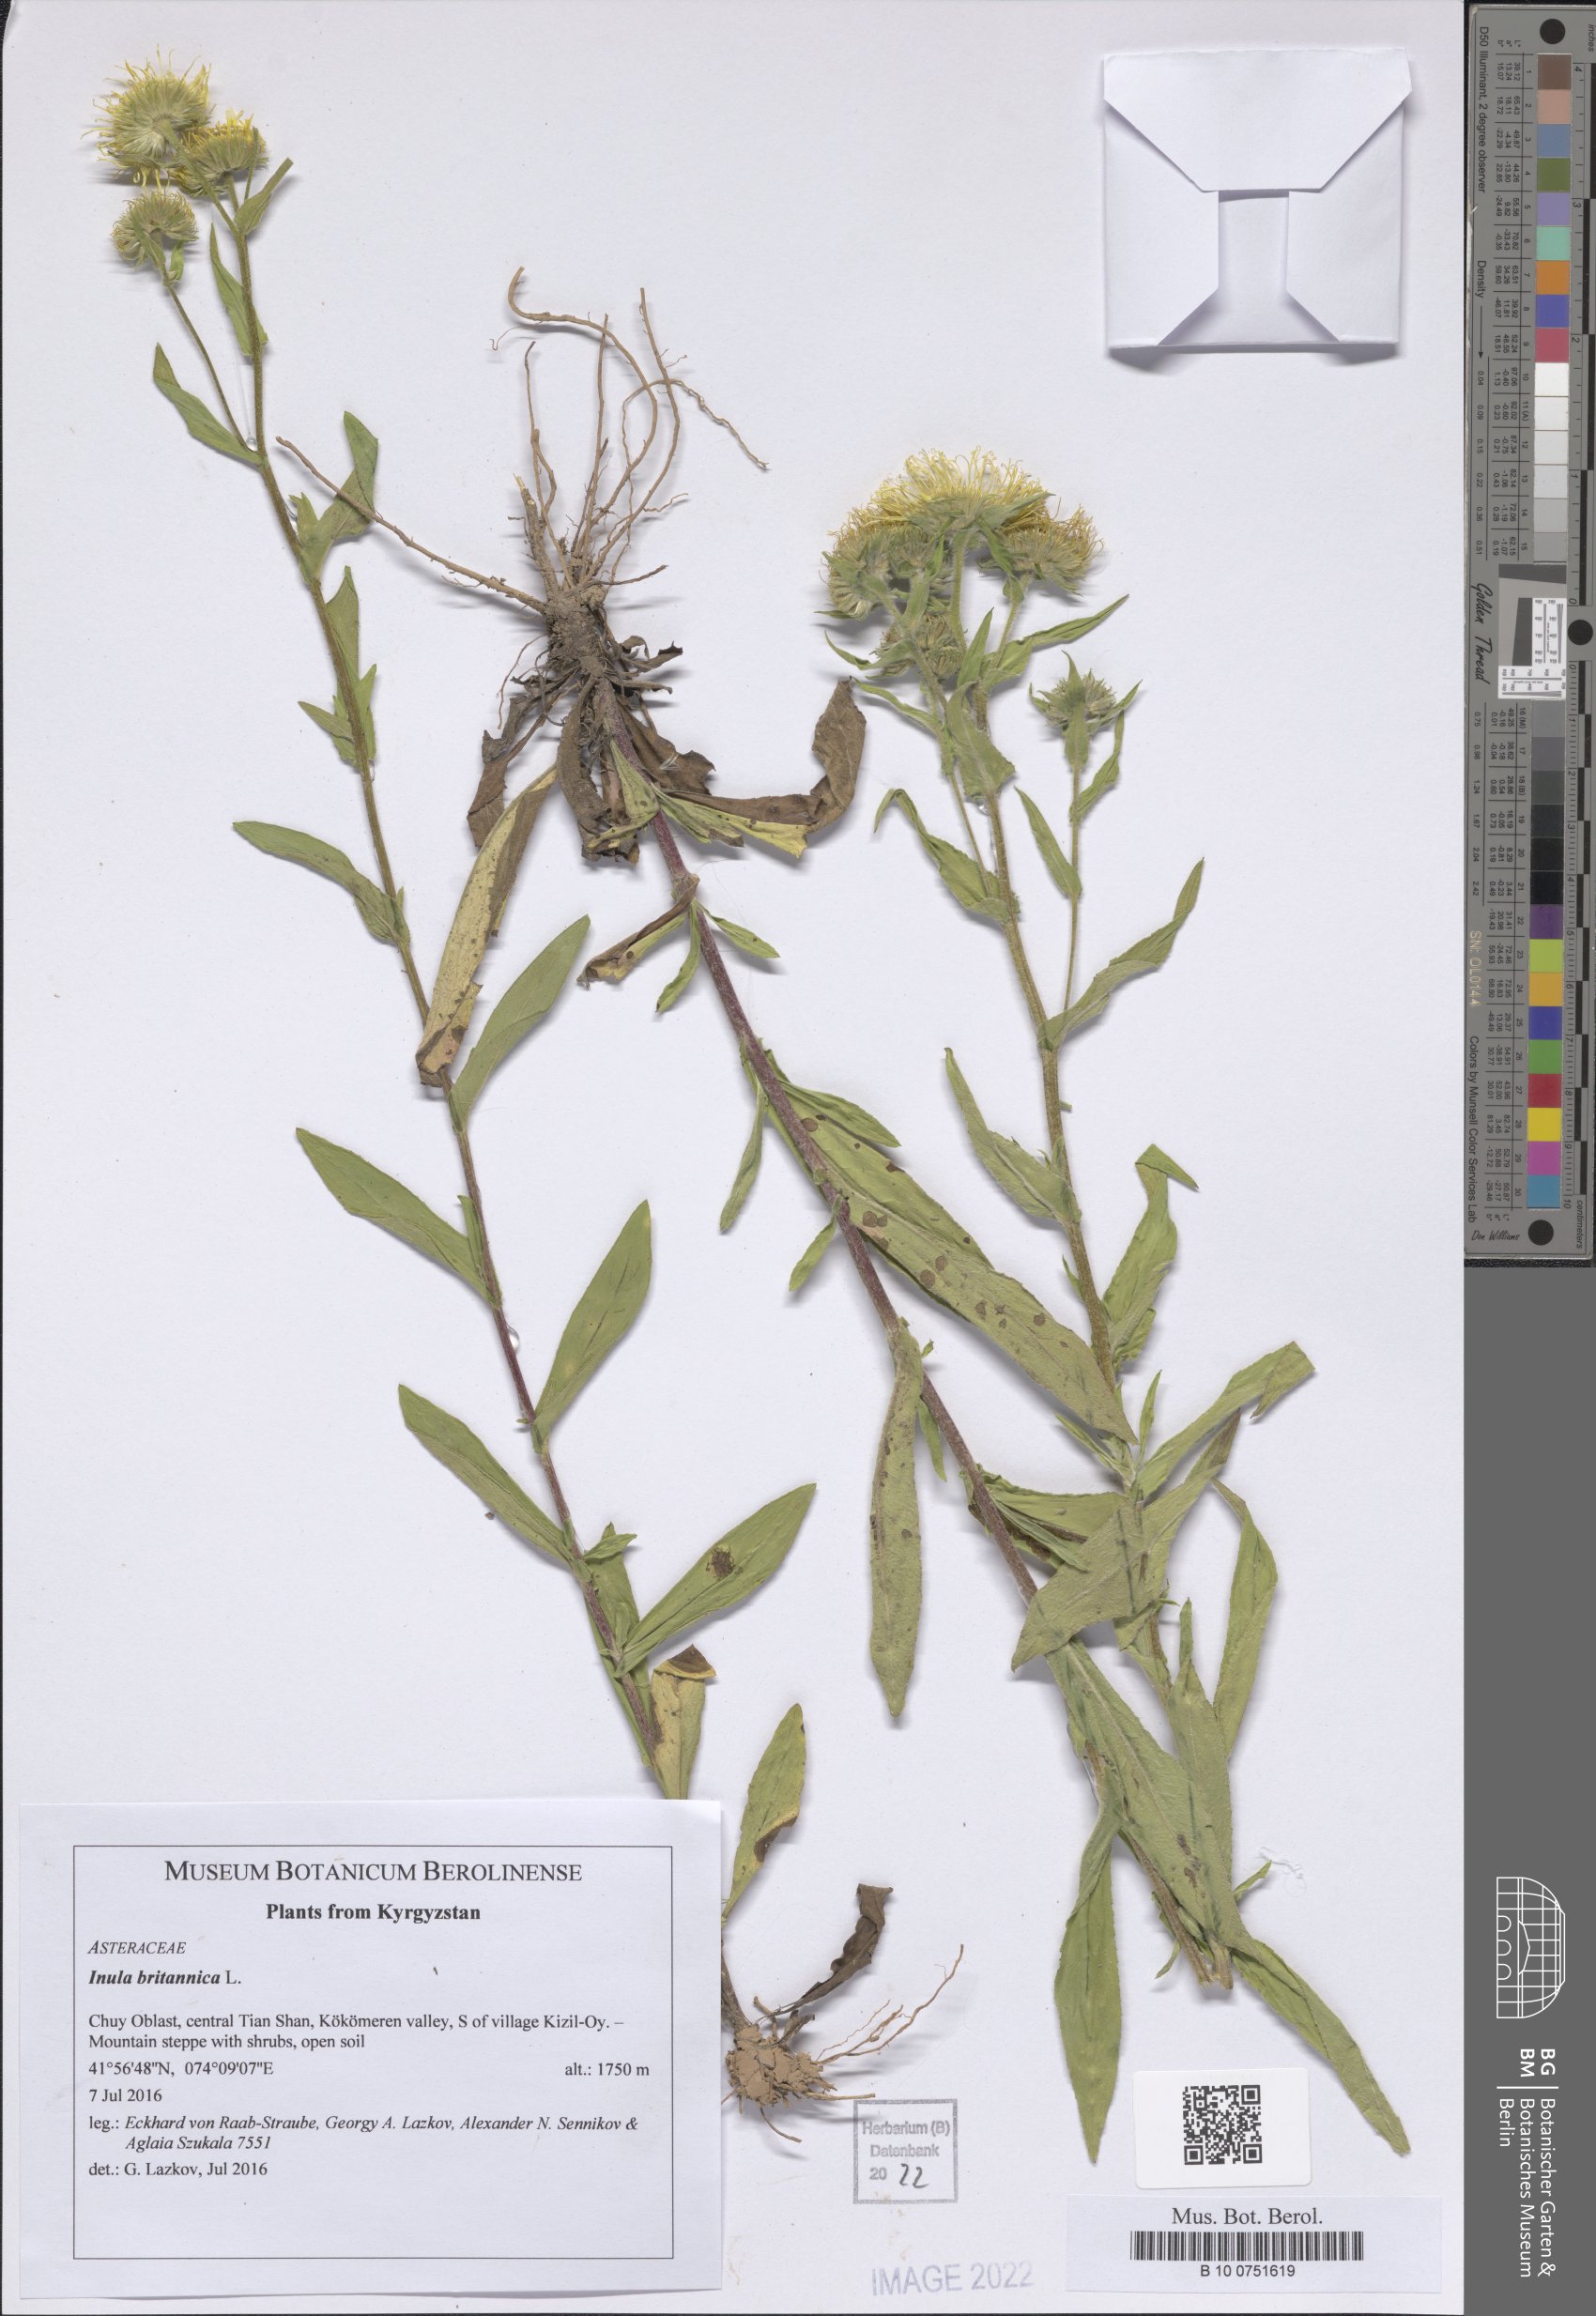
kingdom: Plantae
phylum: Tracheophyta
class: Magnoliopsida
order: Asterales
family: Asteraceae
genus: Pentanema
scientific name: Pentanema britannicum
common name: British elecampane
